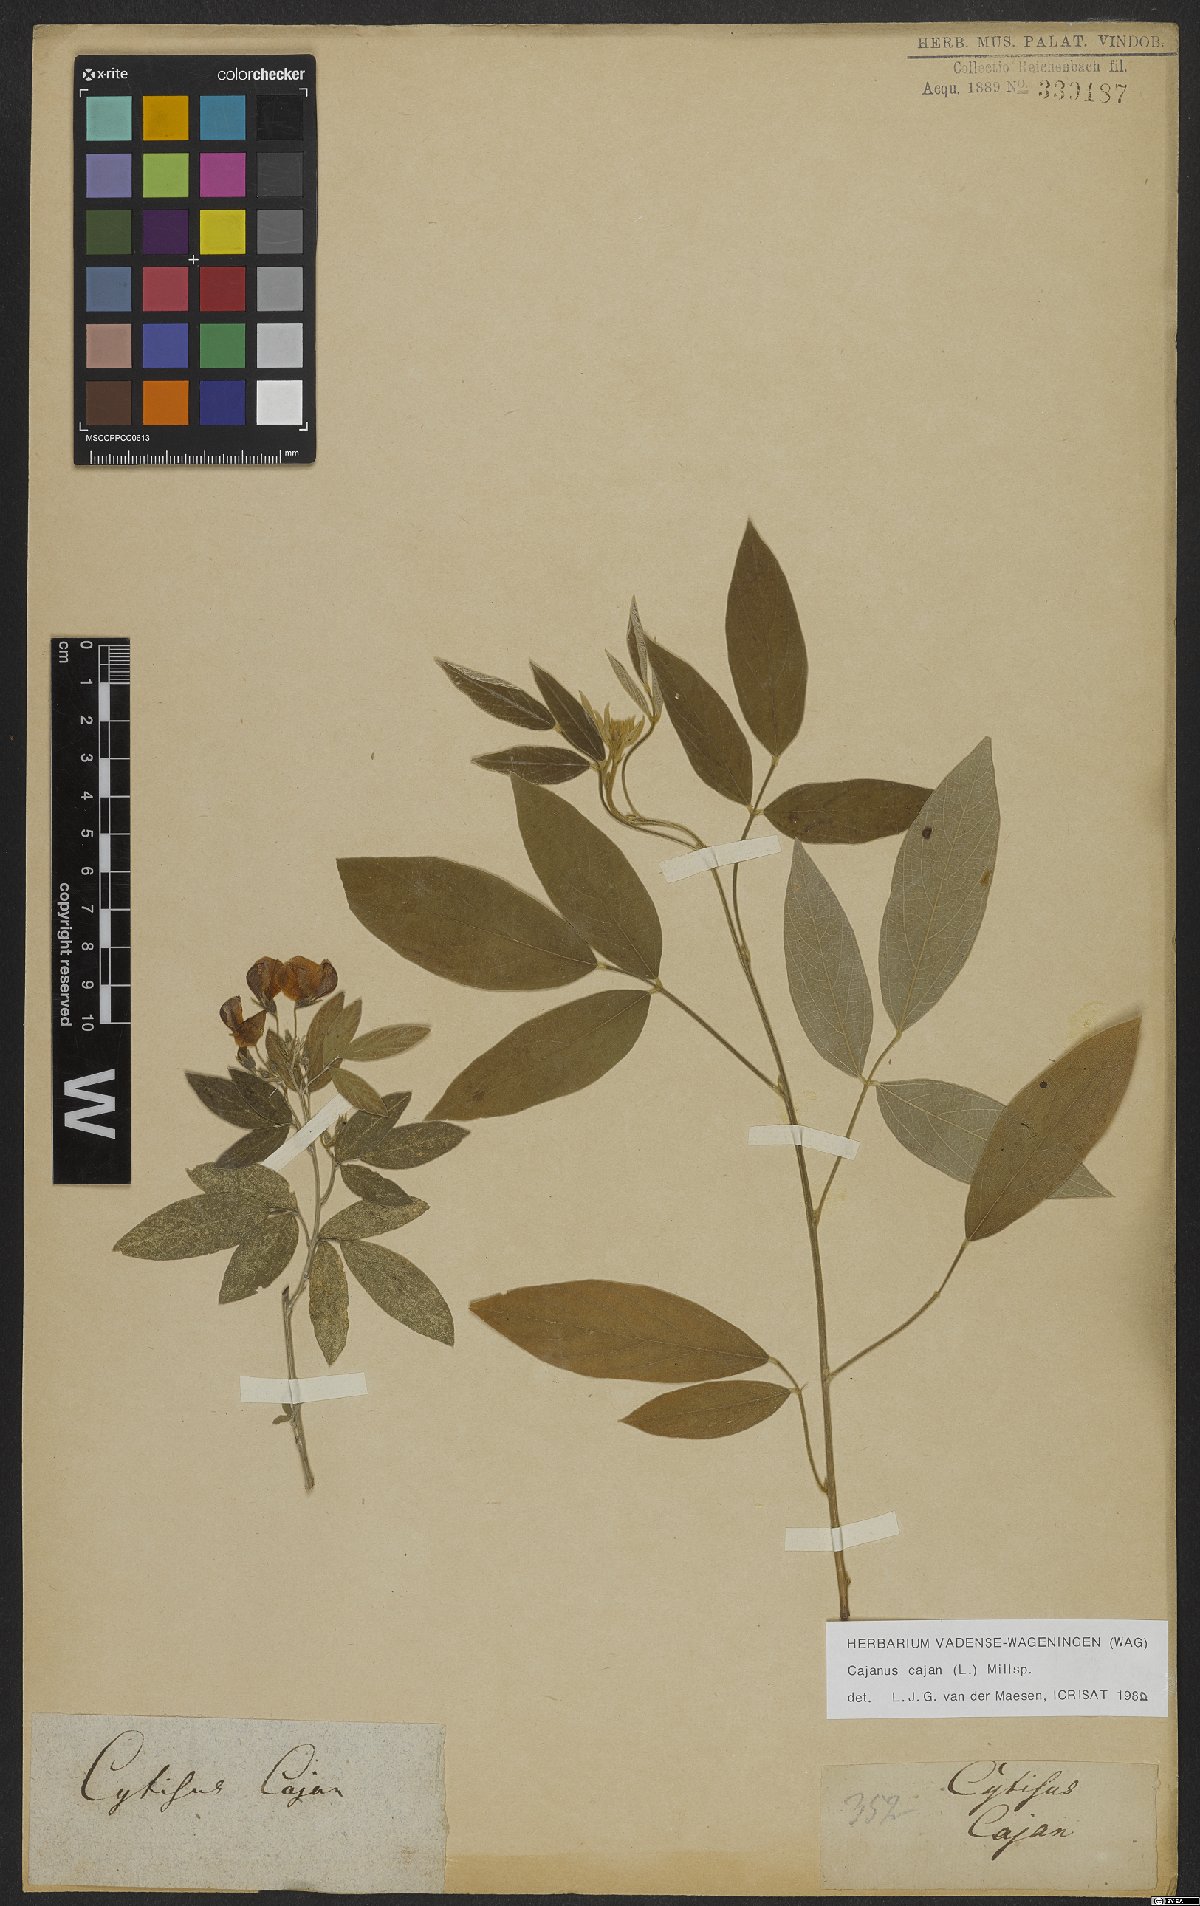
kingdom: Plantae
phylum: Tracheophyta
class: Magnoliopsida
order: Fabales
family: Fabaceae
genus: Cajanus
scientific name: Cajanus cajan
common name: Pigeonpea
